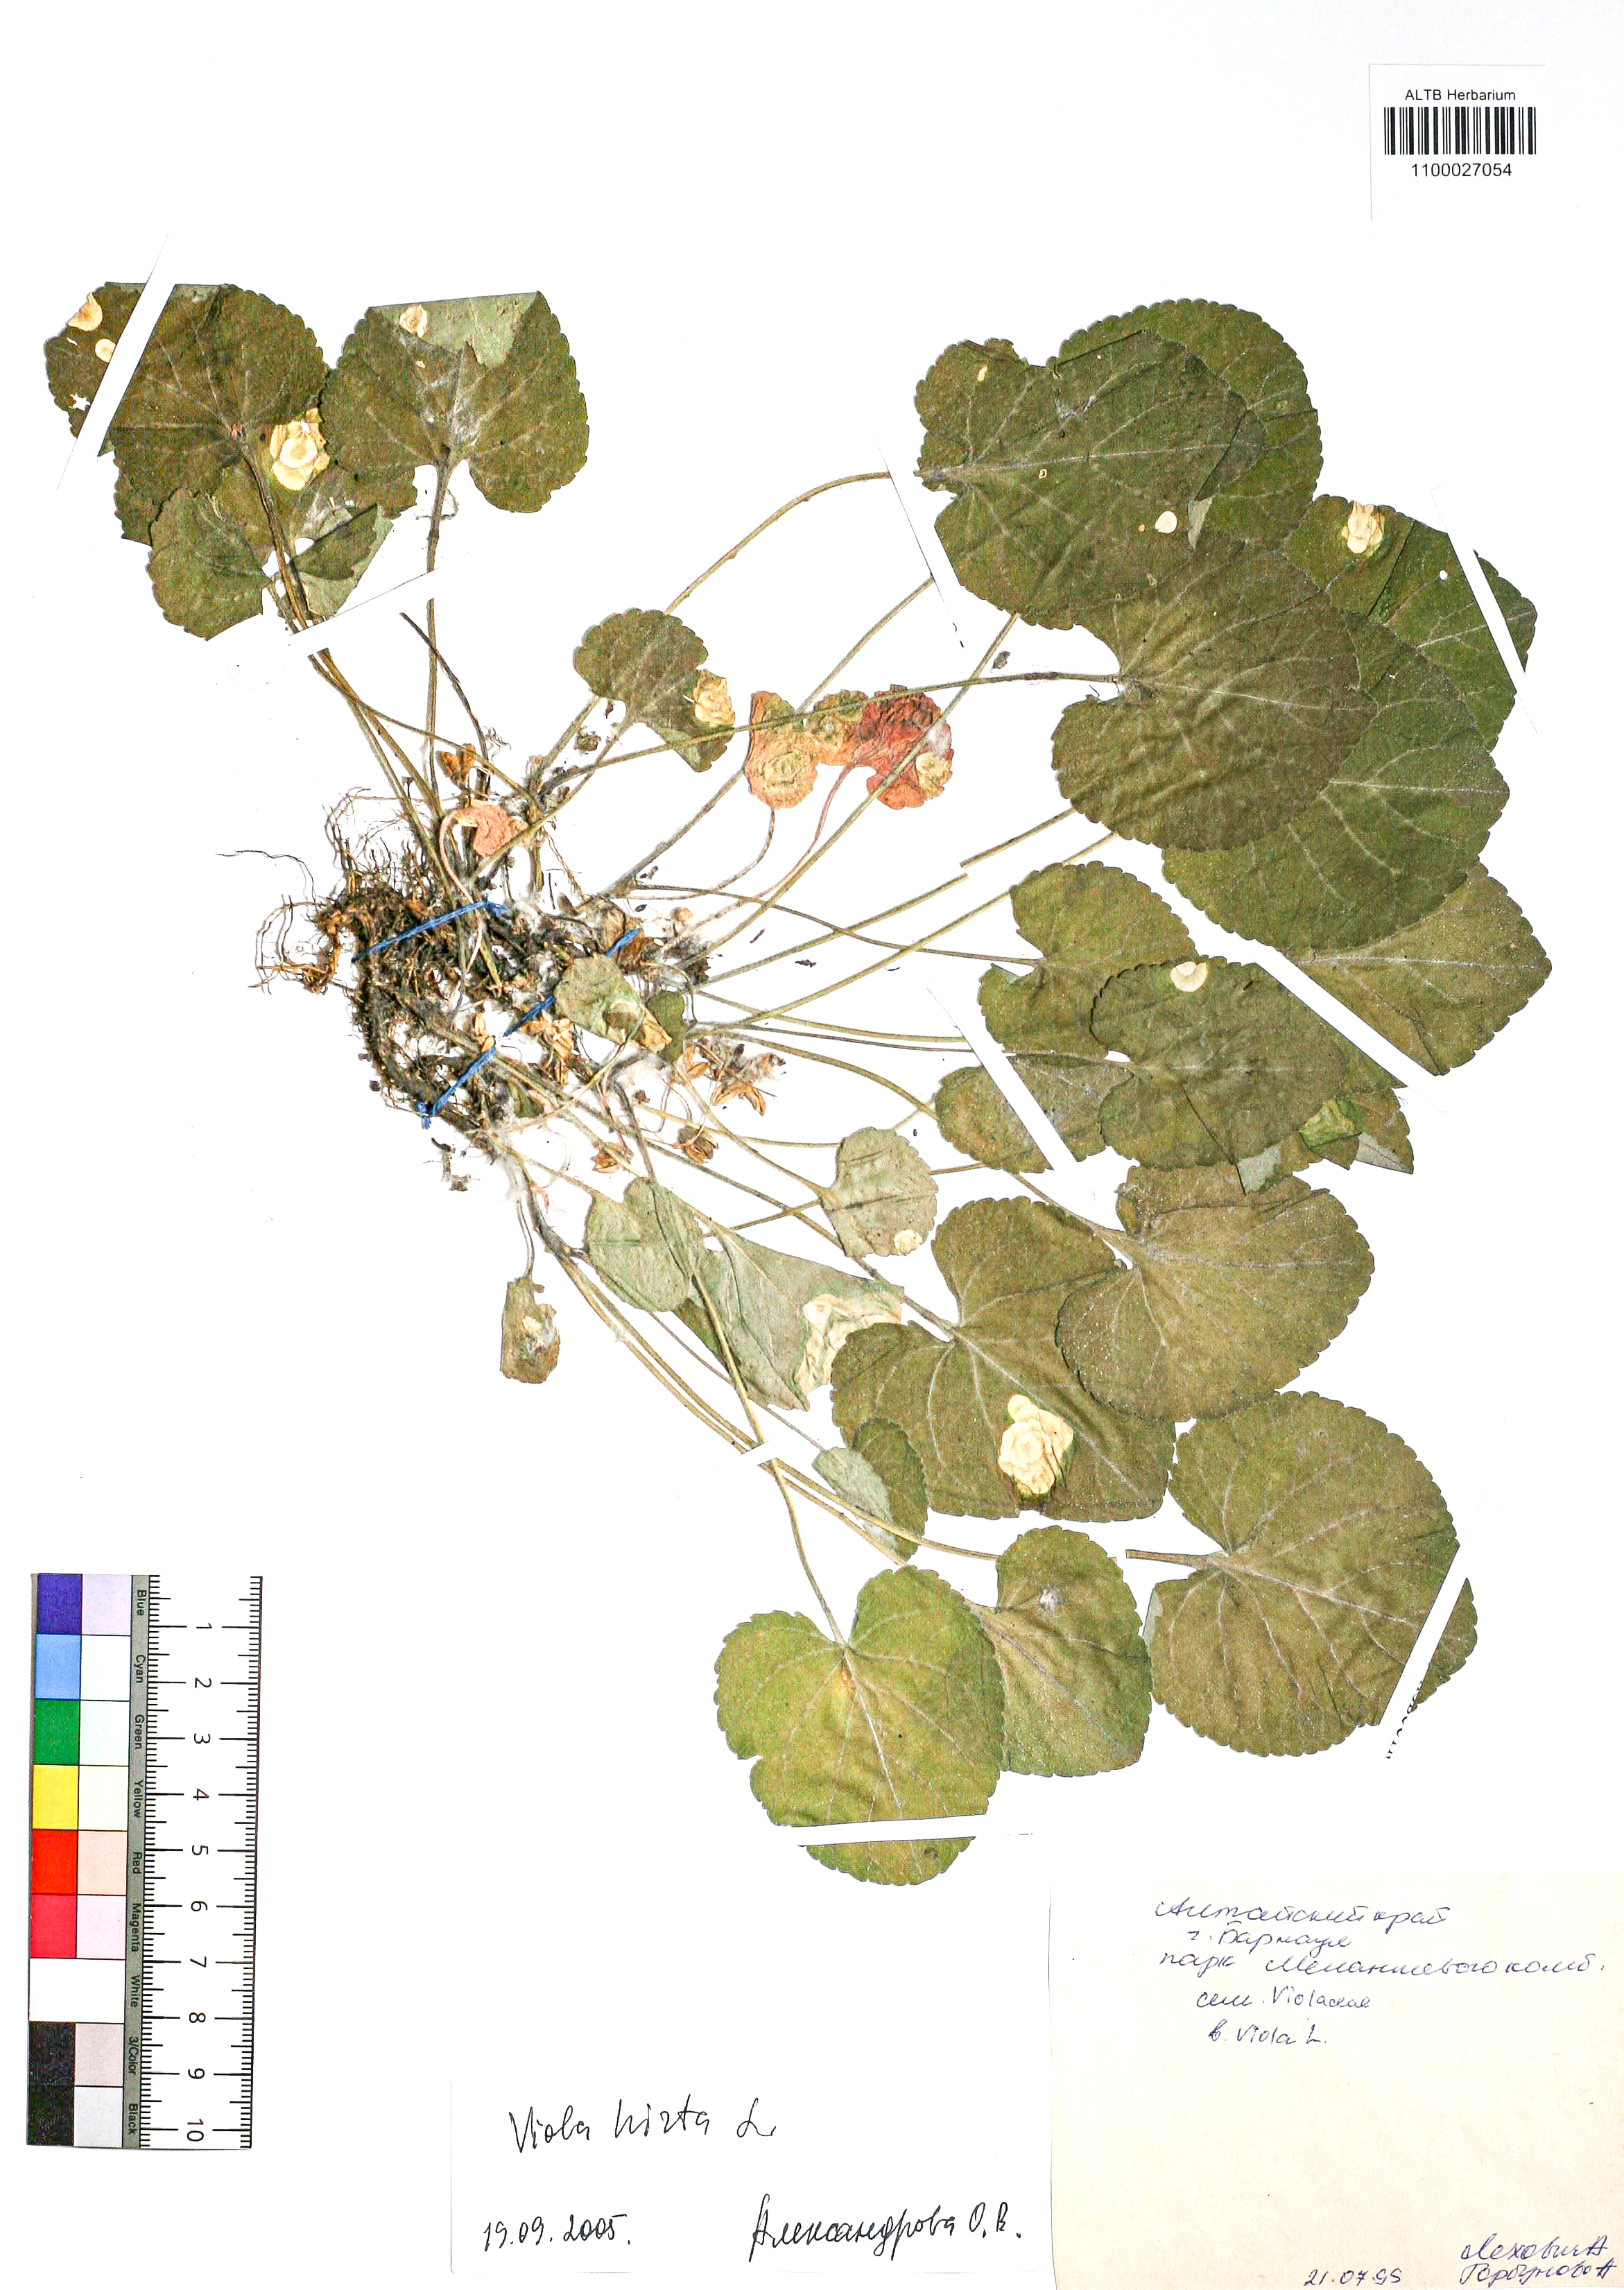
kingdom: Plantae
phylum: Tracheophyta
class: Magnoliopsida
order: Malpighiales
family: Violaceae
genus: Viola
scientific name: Viola hirta
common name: Hairy violet
